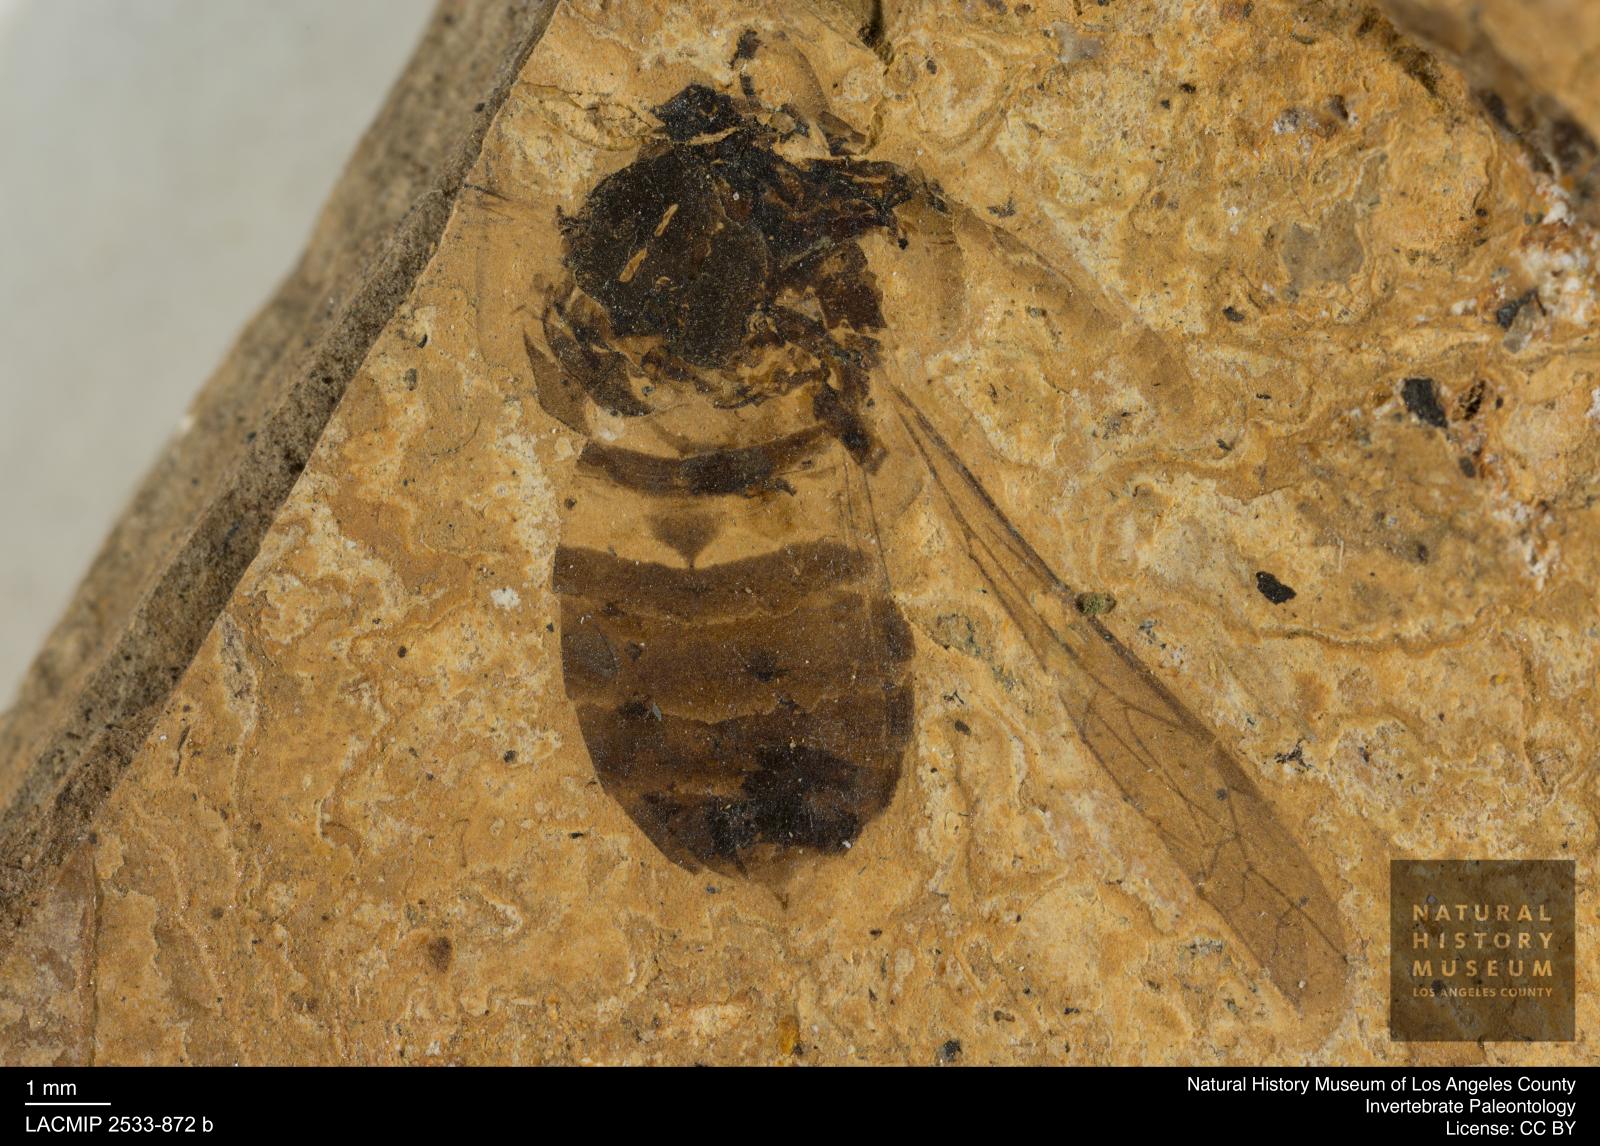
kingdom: Animalia
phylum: Arthropoda
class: Insecta
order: Hymenoptera
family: Vespidae
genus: Vespa
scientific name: Vespa cordifera
